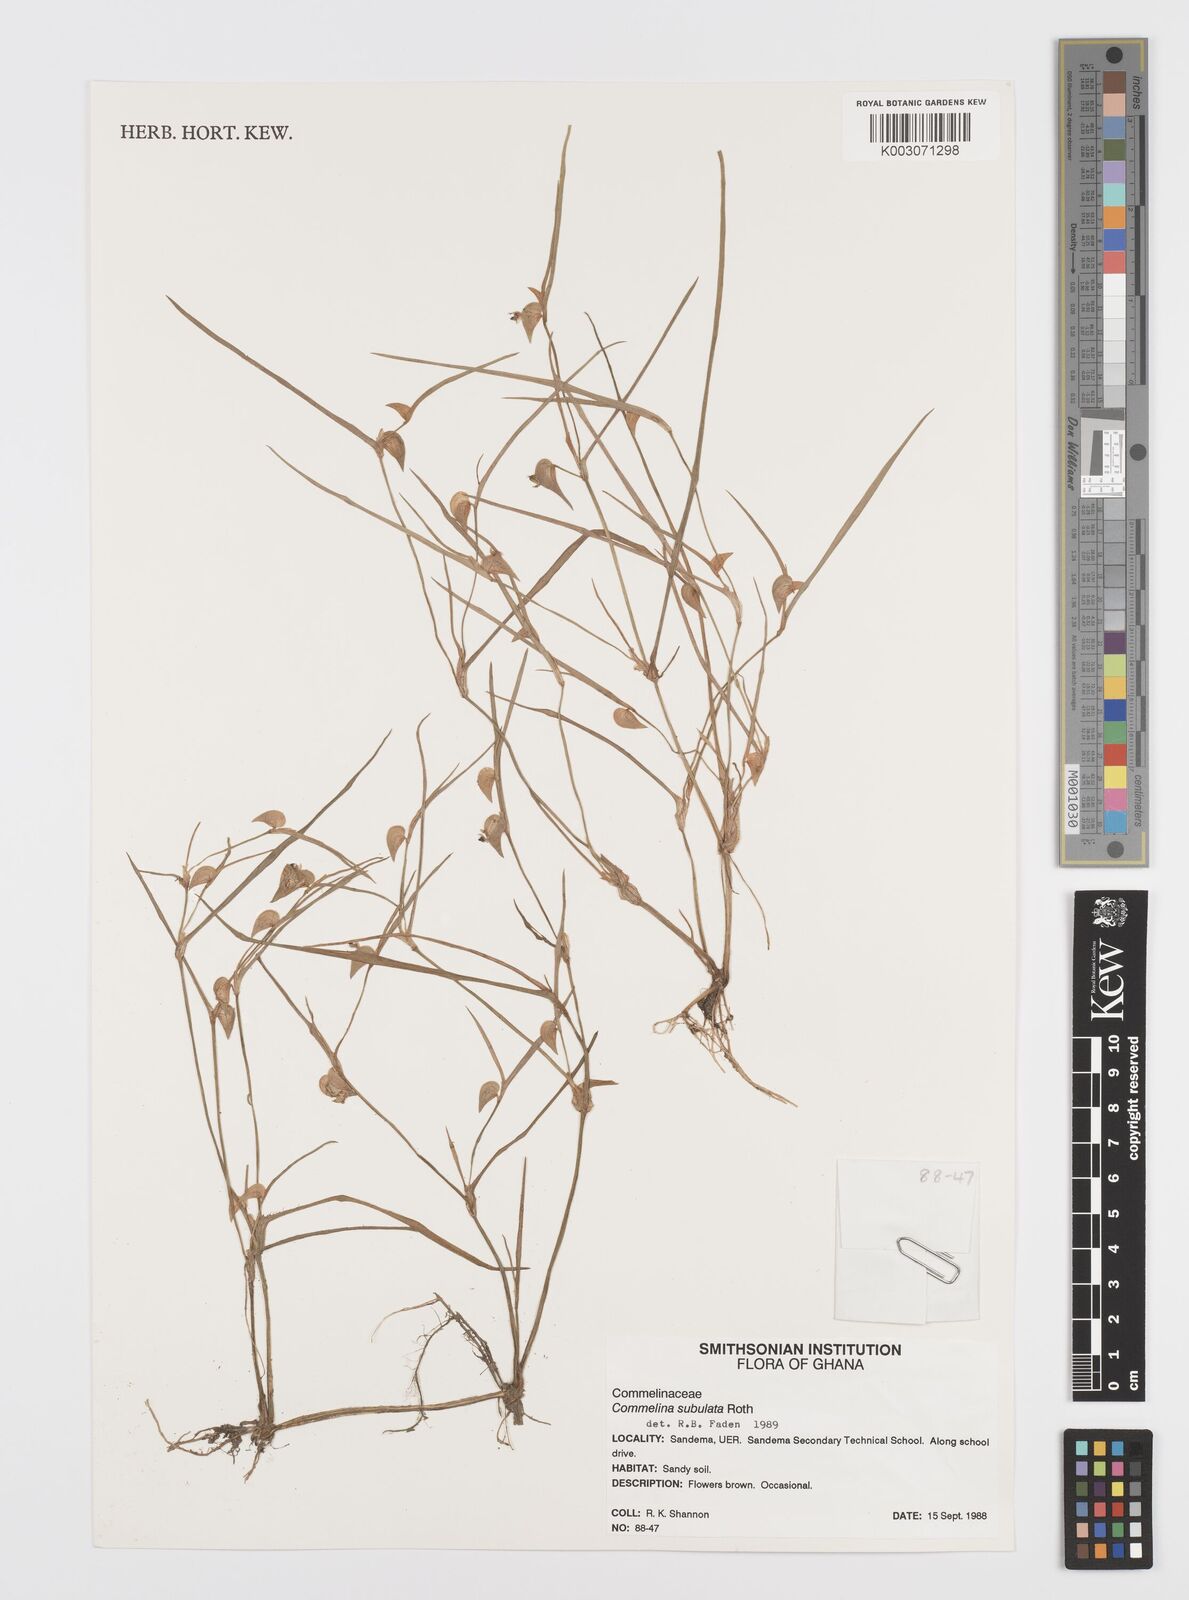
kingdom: Plantae
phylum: Tracheophyta
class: Liliopsida
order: Commelinales
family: Commelinaceae
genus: Commelina
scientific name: Commelina subulata
